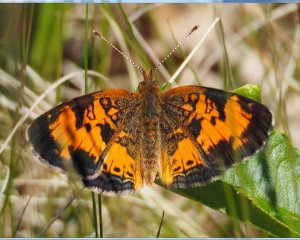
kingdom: Animalia
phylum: Arthropoda
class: Insecta
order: Lepidoptera
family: Nymphalidae
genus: Phyciodes
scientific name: Phyciodes tharos
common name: Northern Crescent
